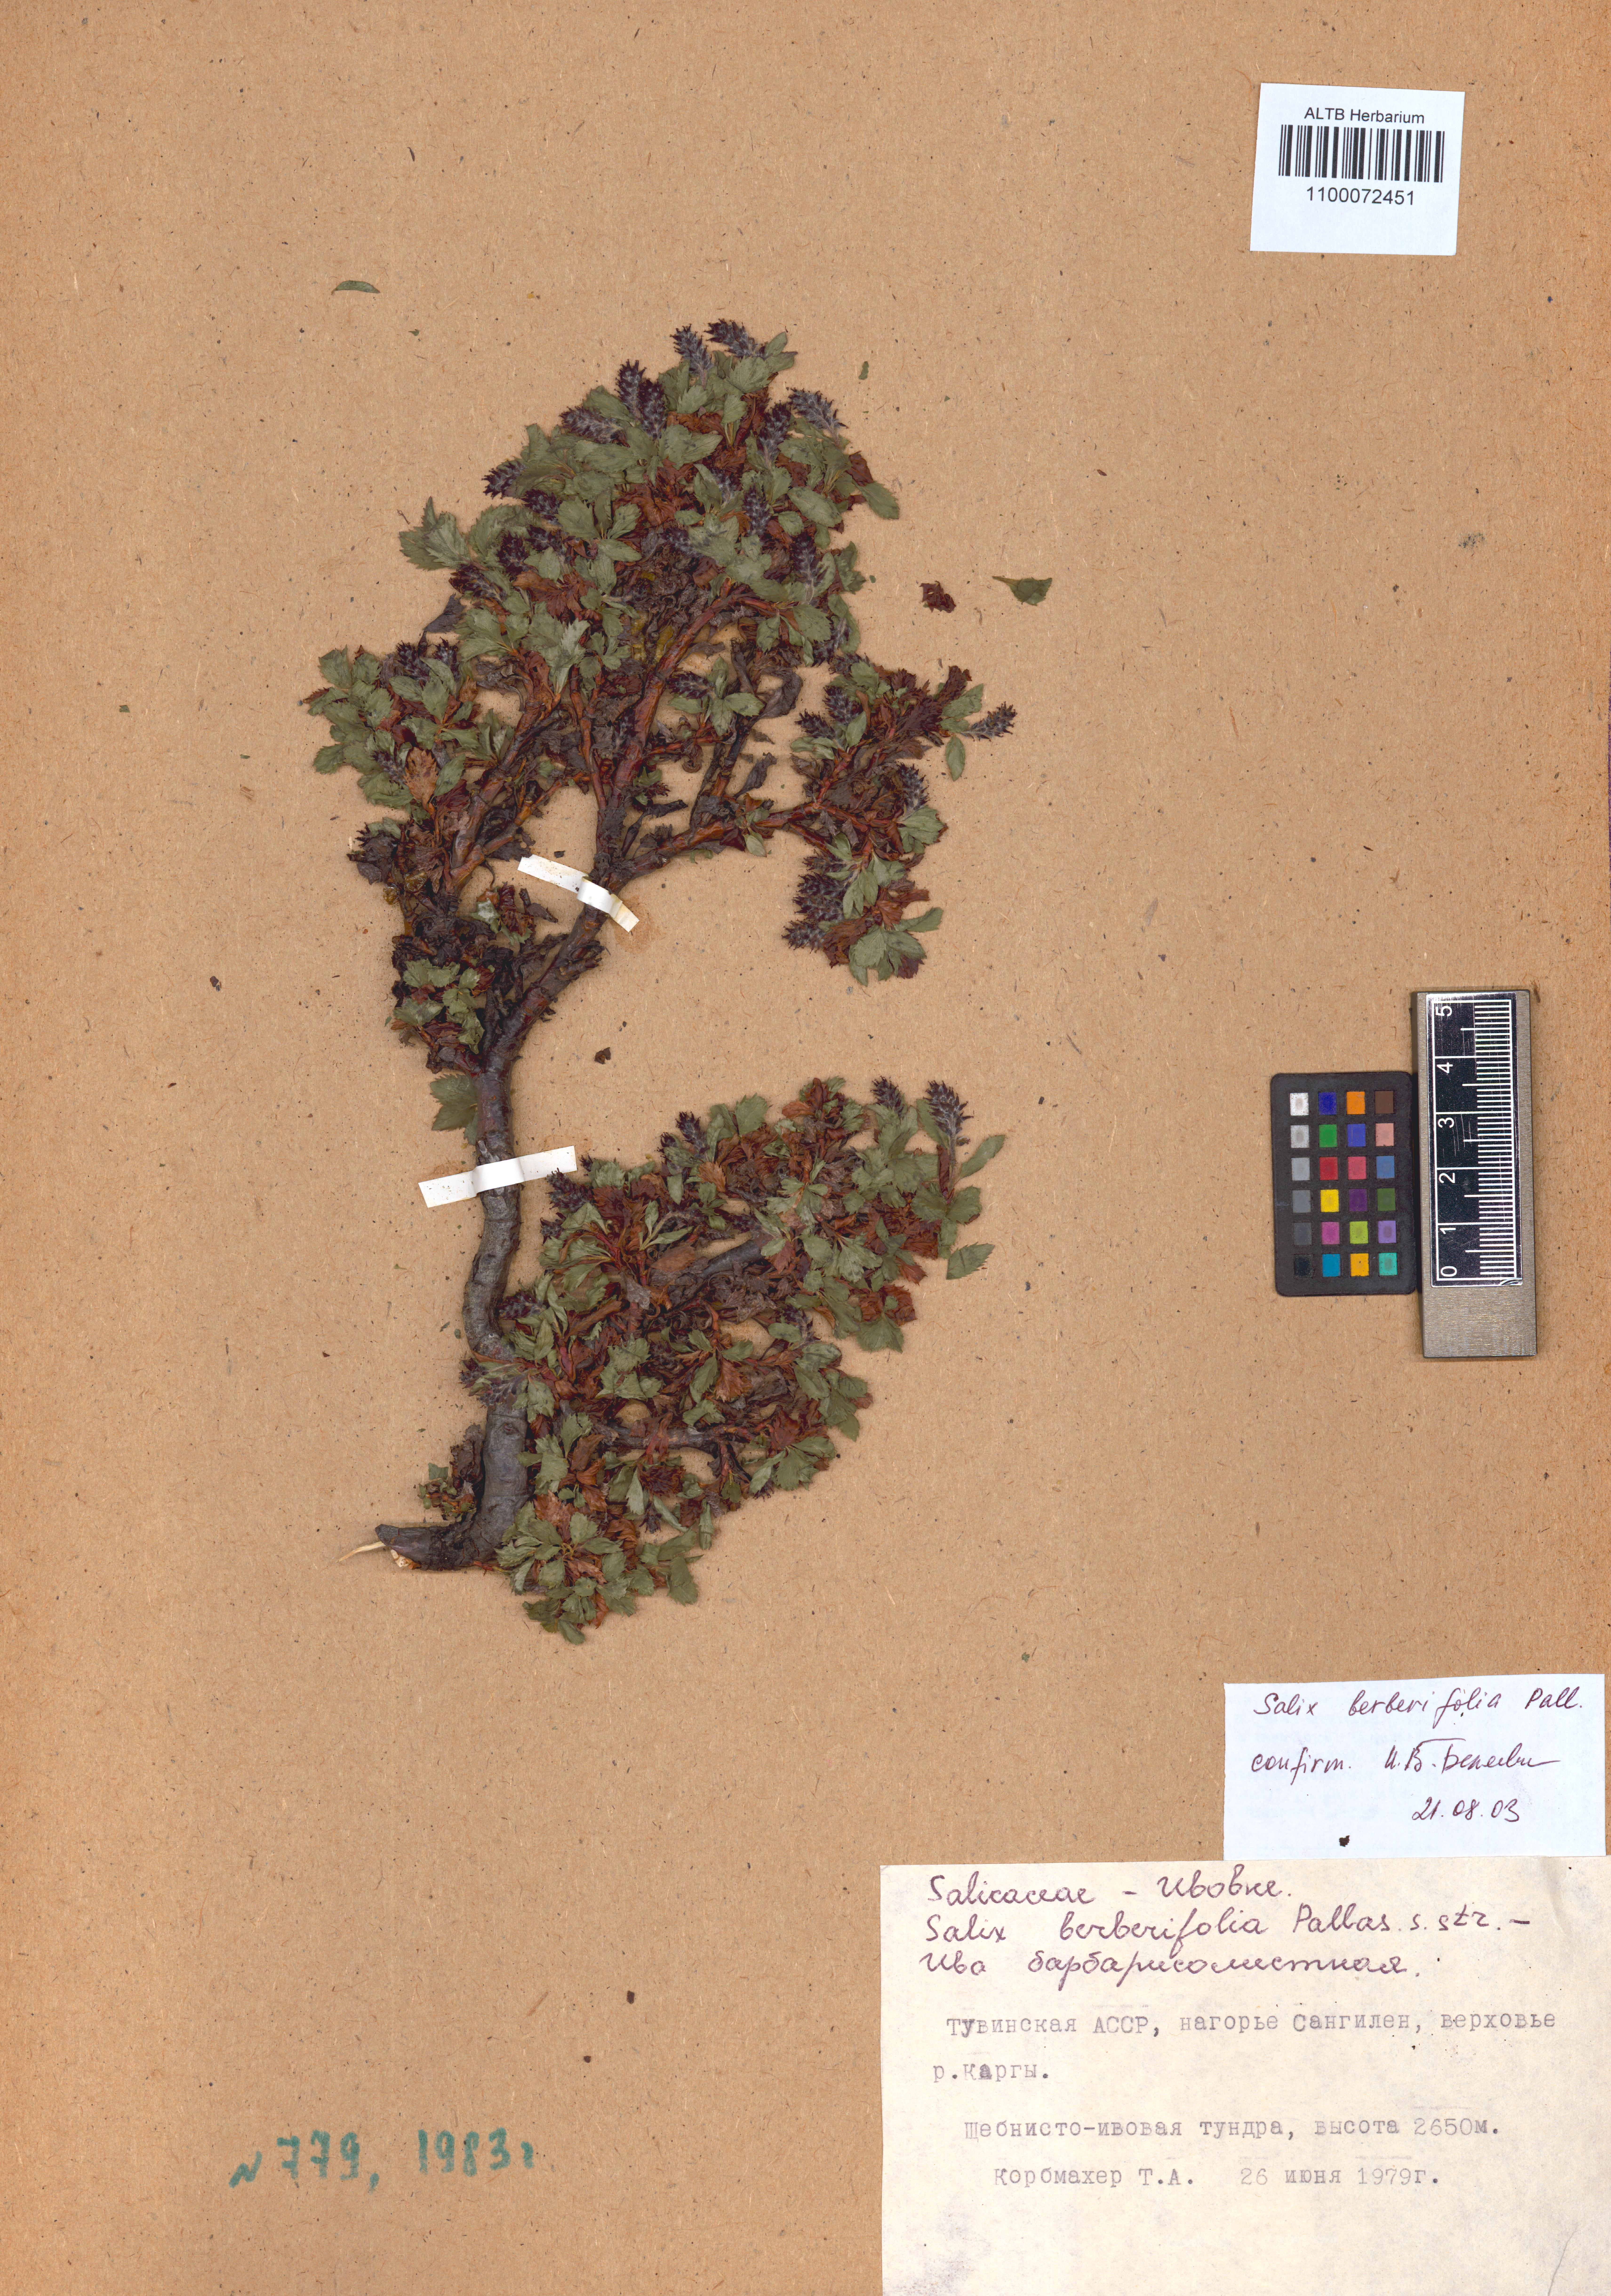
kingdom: Plantae
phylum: Tracheophyta
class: Magnoliopsida
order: Malpighiales
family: Salicaceae
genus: Salix
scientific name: Salix berberifolia
